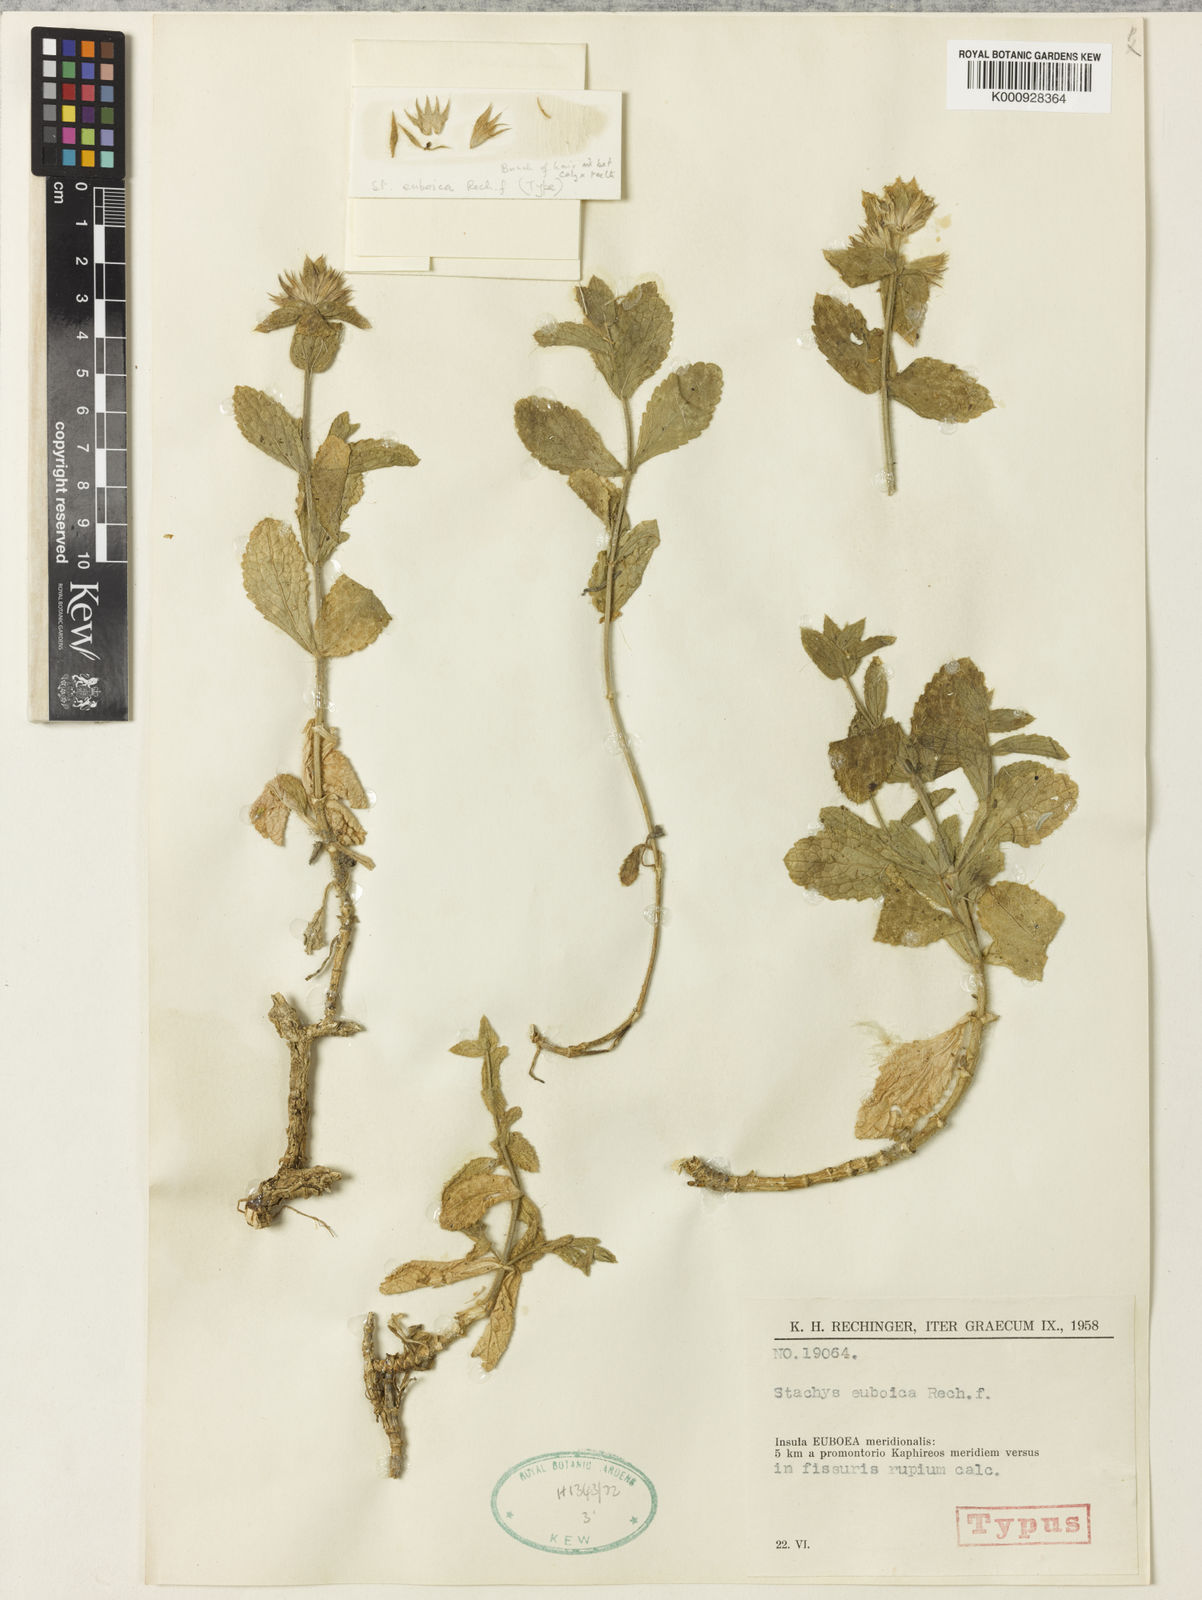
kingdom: Plantae
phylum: Tracheophyta
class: Magnoliopsida
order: Lamiales
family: Lamiaceae
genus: Stachys
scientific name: Stachys euboica
